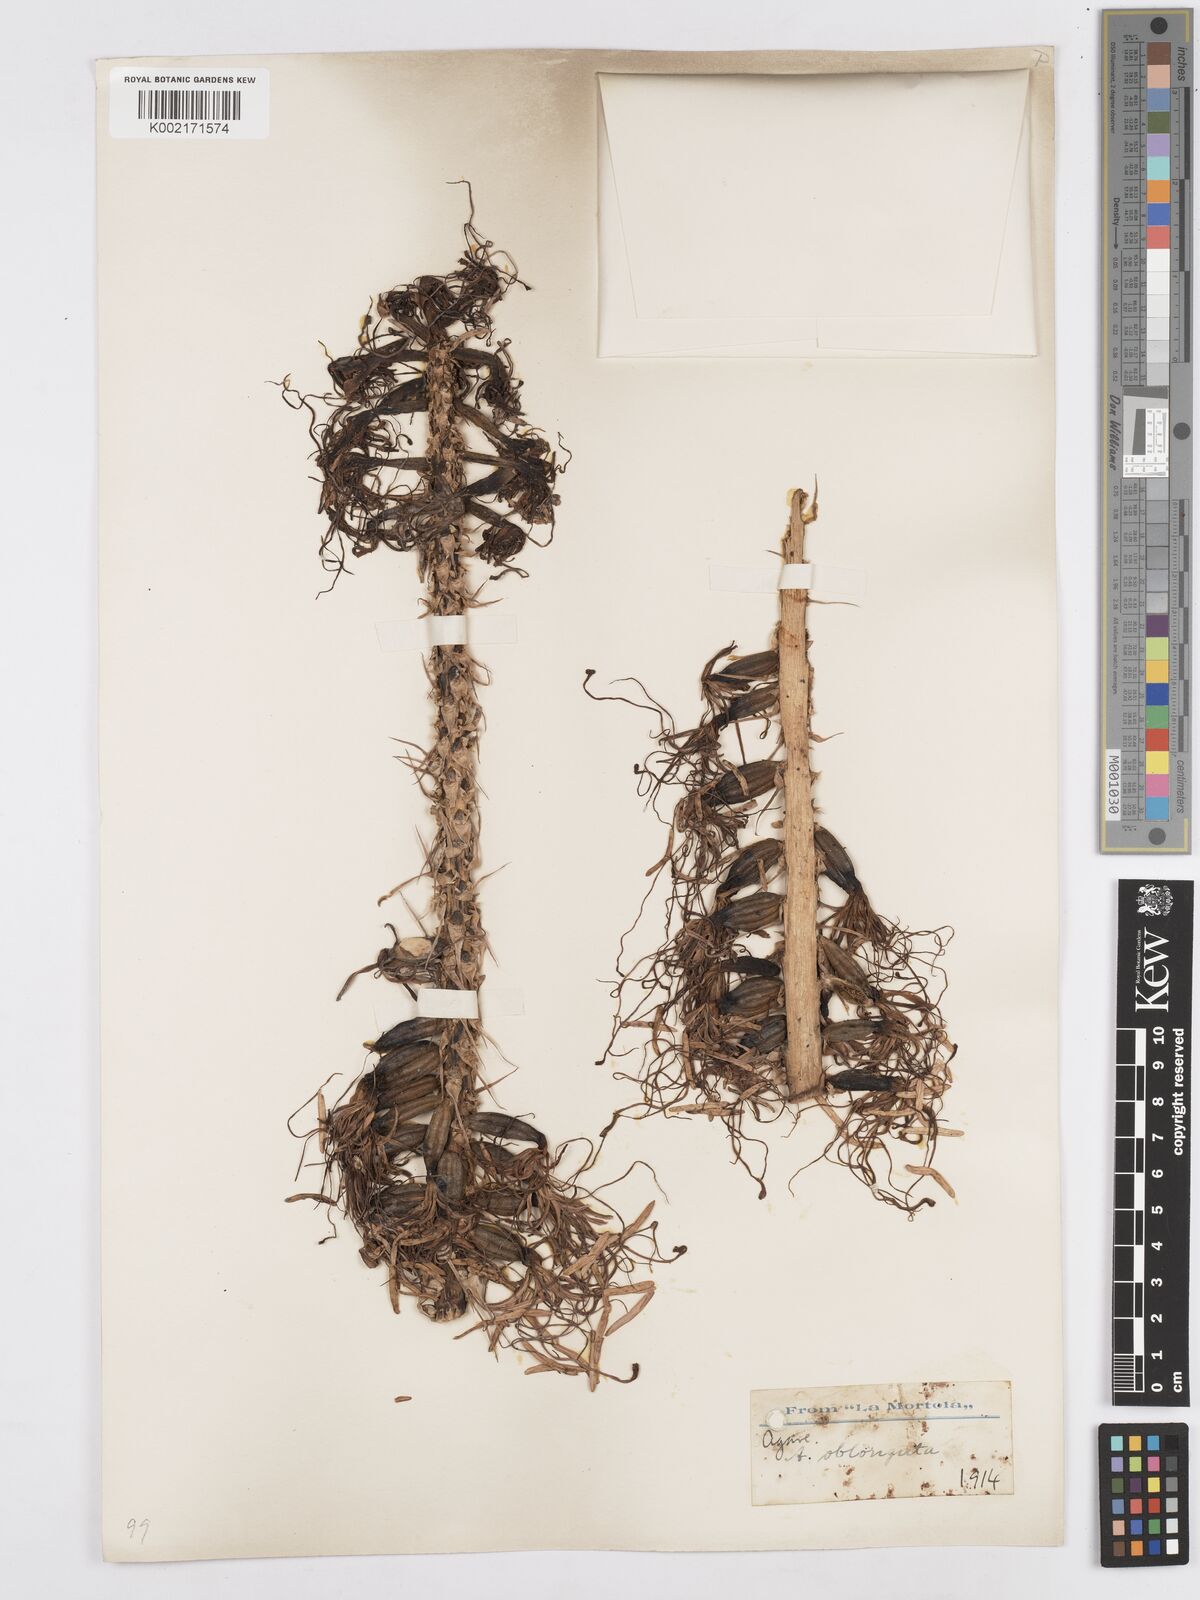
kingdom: Plantae
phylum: Tracheophyta
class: Liliopsida
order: Asparagales
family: Asparagaceae
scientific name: Asparagaceae
